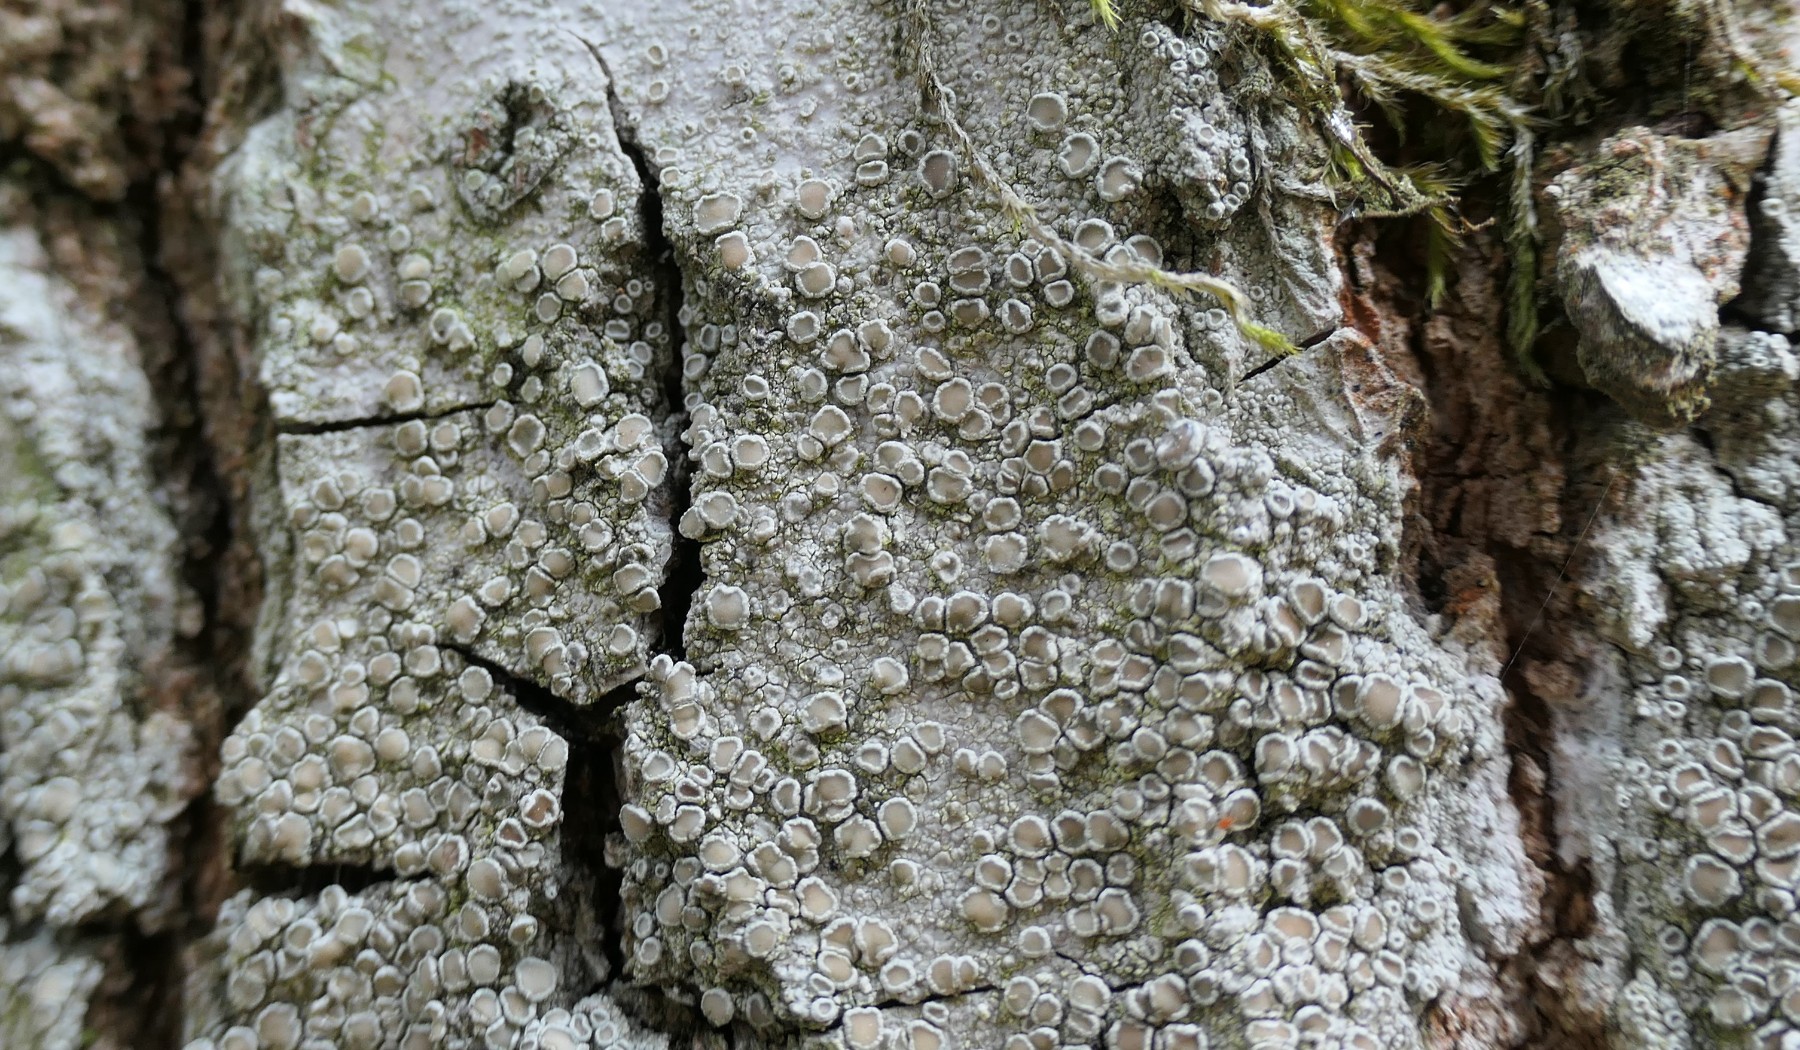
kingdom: Fungi
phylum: Ascomycota
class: Lecanoromycetes
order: Lecanorales
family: Lecanoraceae
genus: Lecanora
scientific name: Lecanora chlarotera
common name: brun kantskivelav
